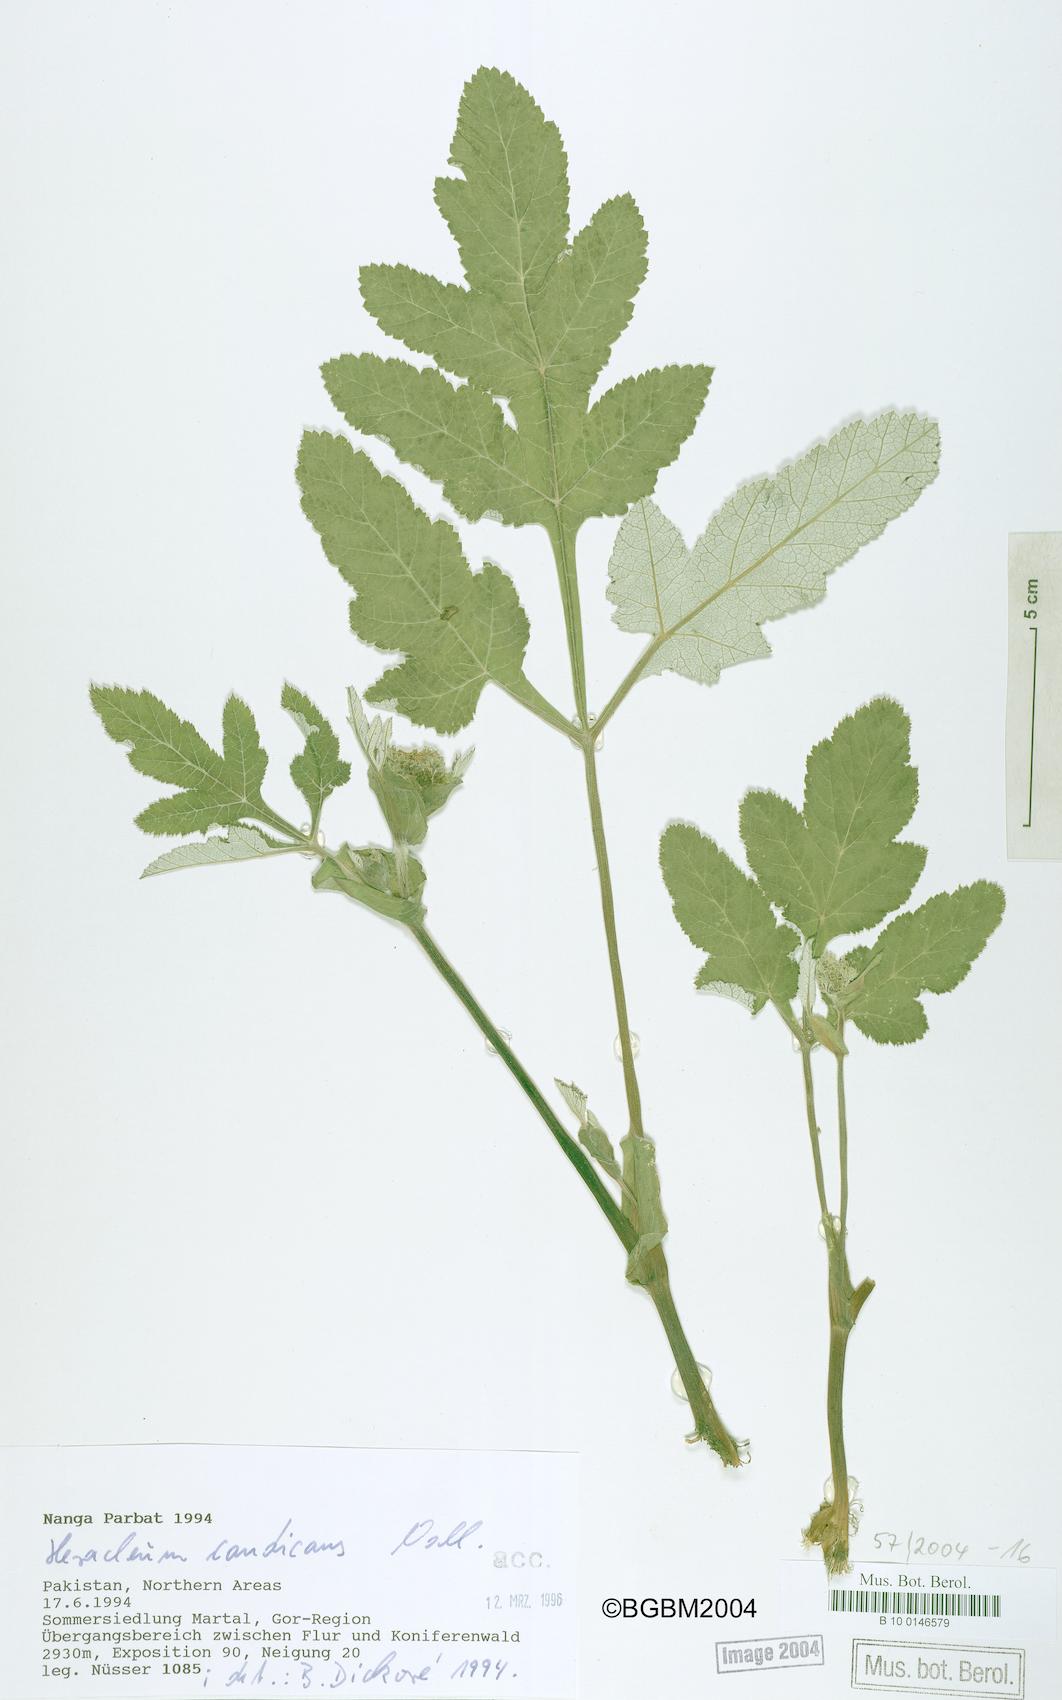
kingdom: Plantae
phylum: Tracheophyta
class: Magnoliopsida
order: Apiales
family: Apiaceae
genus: Tetrataenium
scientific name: Tetrataenium candicans
